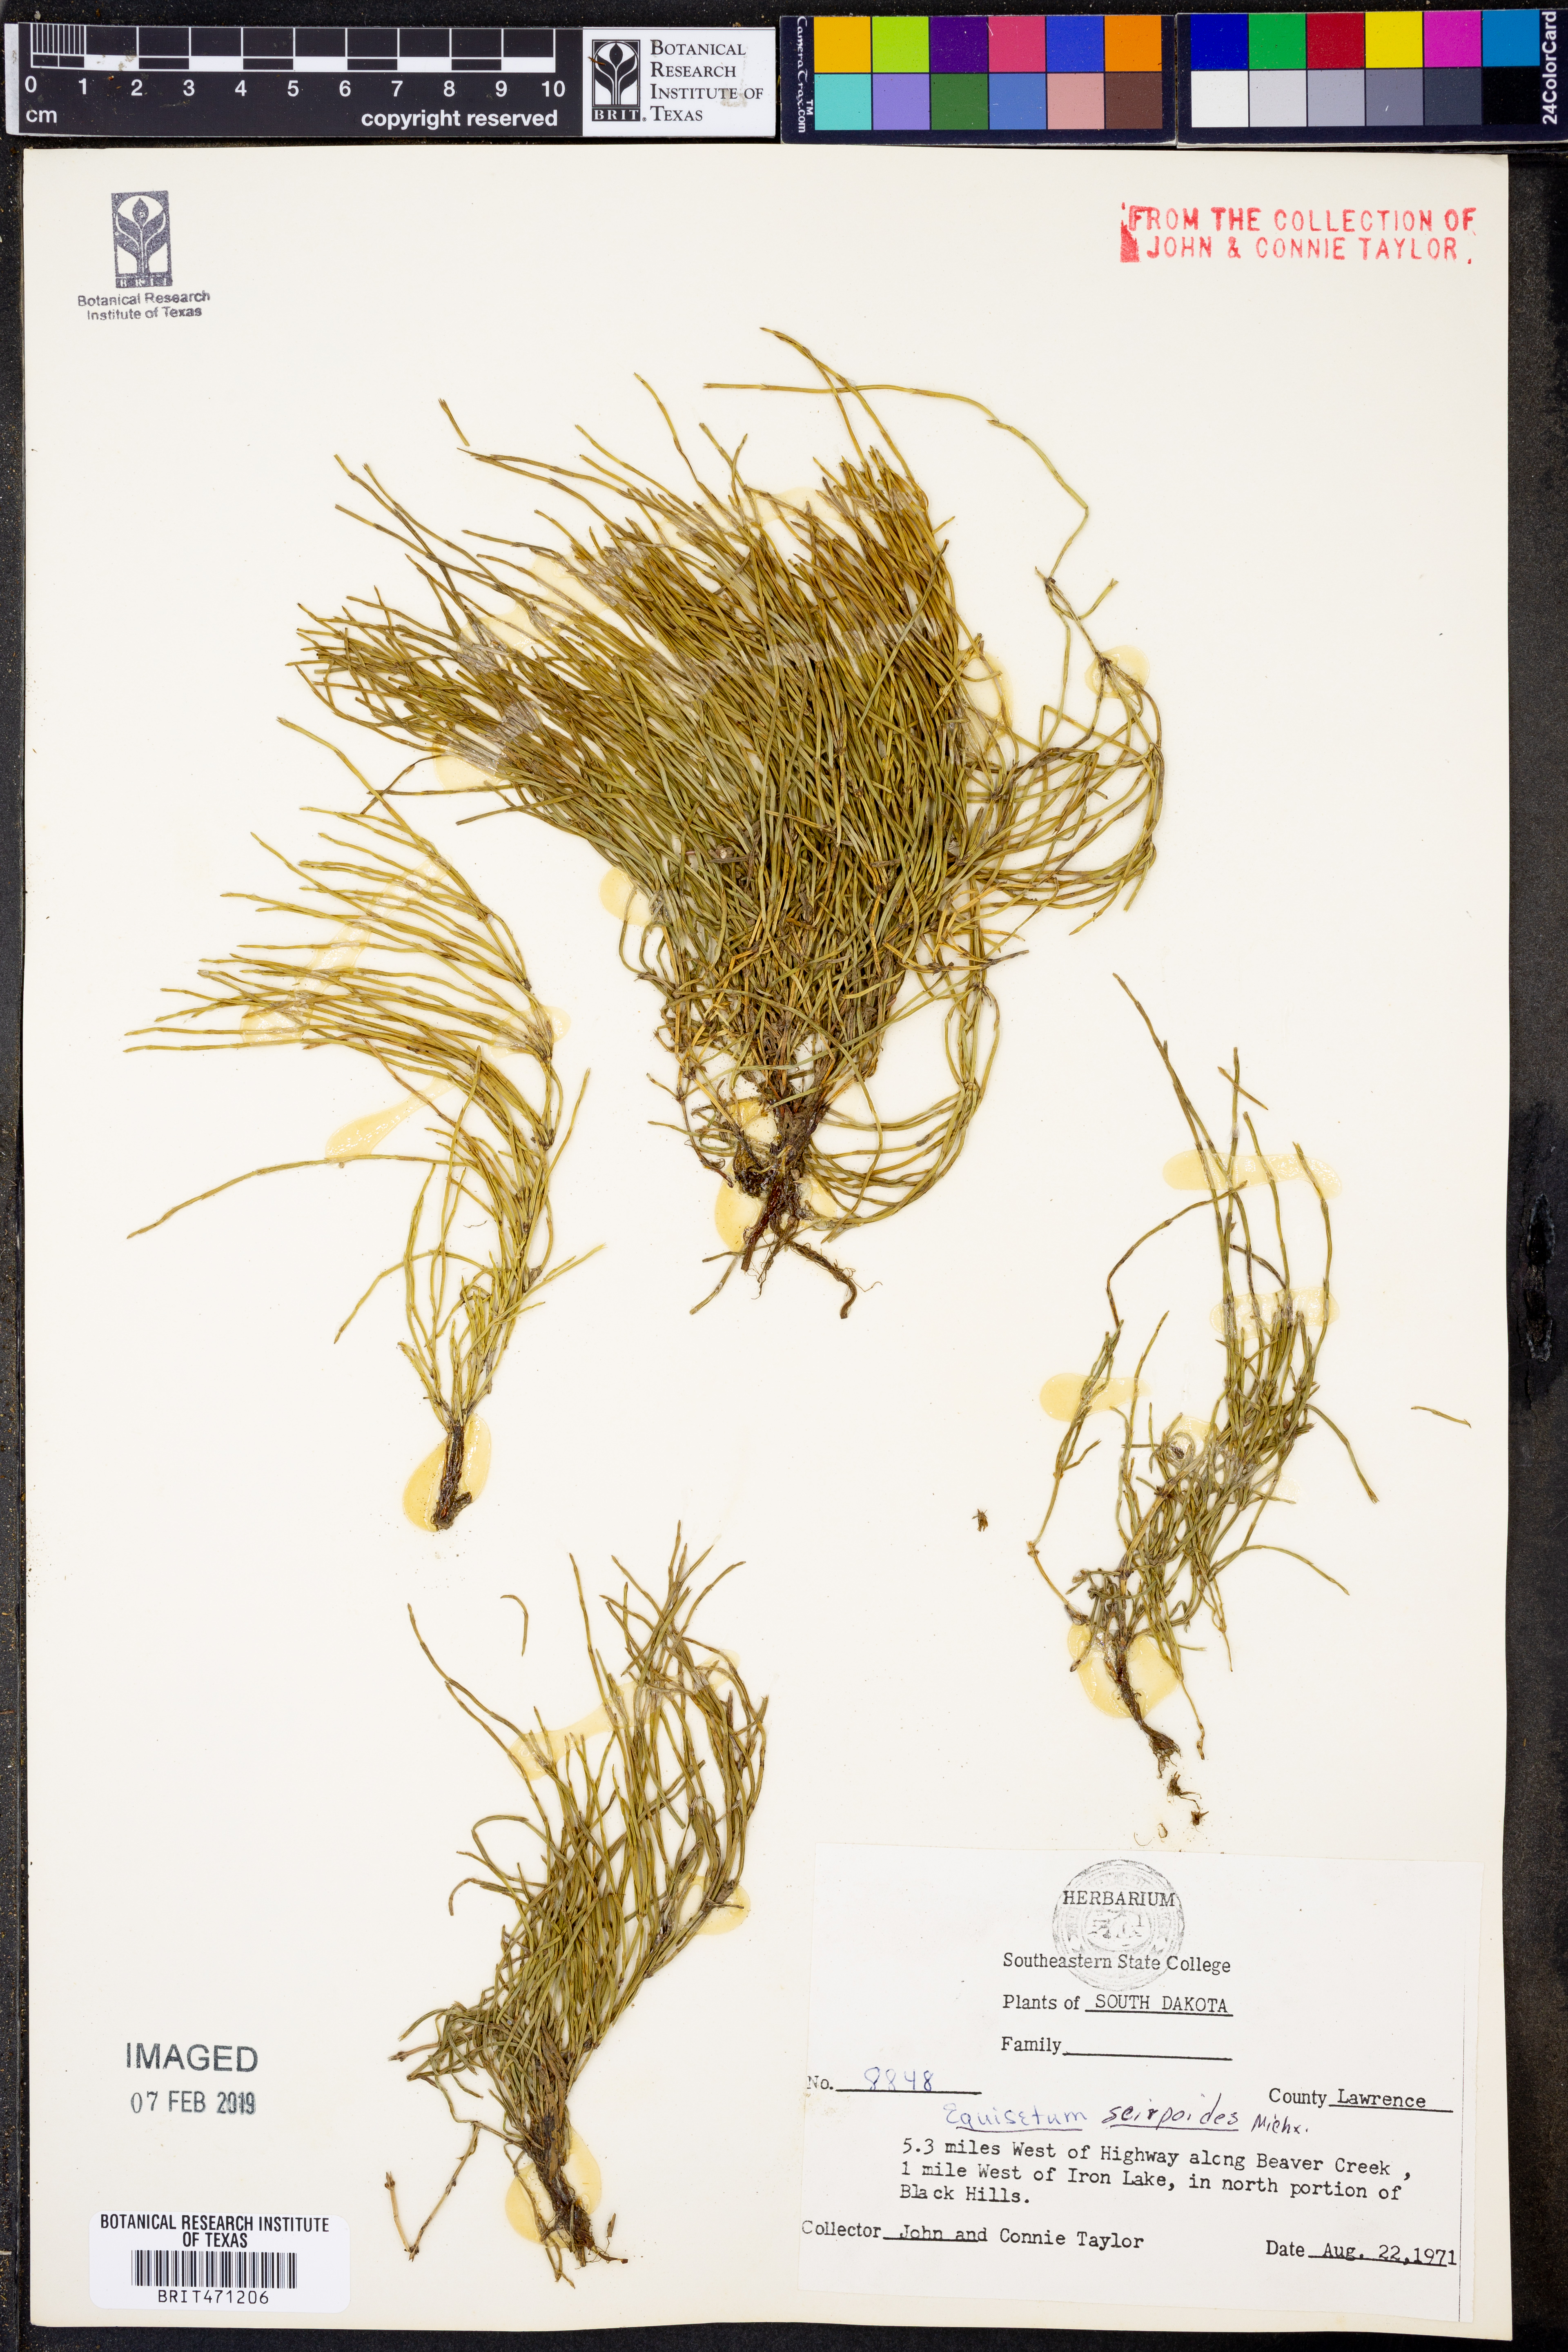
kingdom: Plantae
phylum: Tracheophyta
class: Polypodiopsida
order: Equisetales
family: Equisetaceae
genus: Equisetum
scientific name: Equisetum scirpoides
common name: Delicate horsetail
